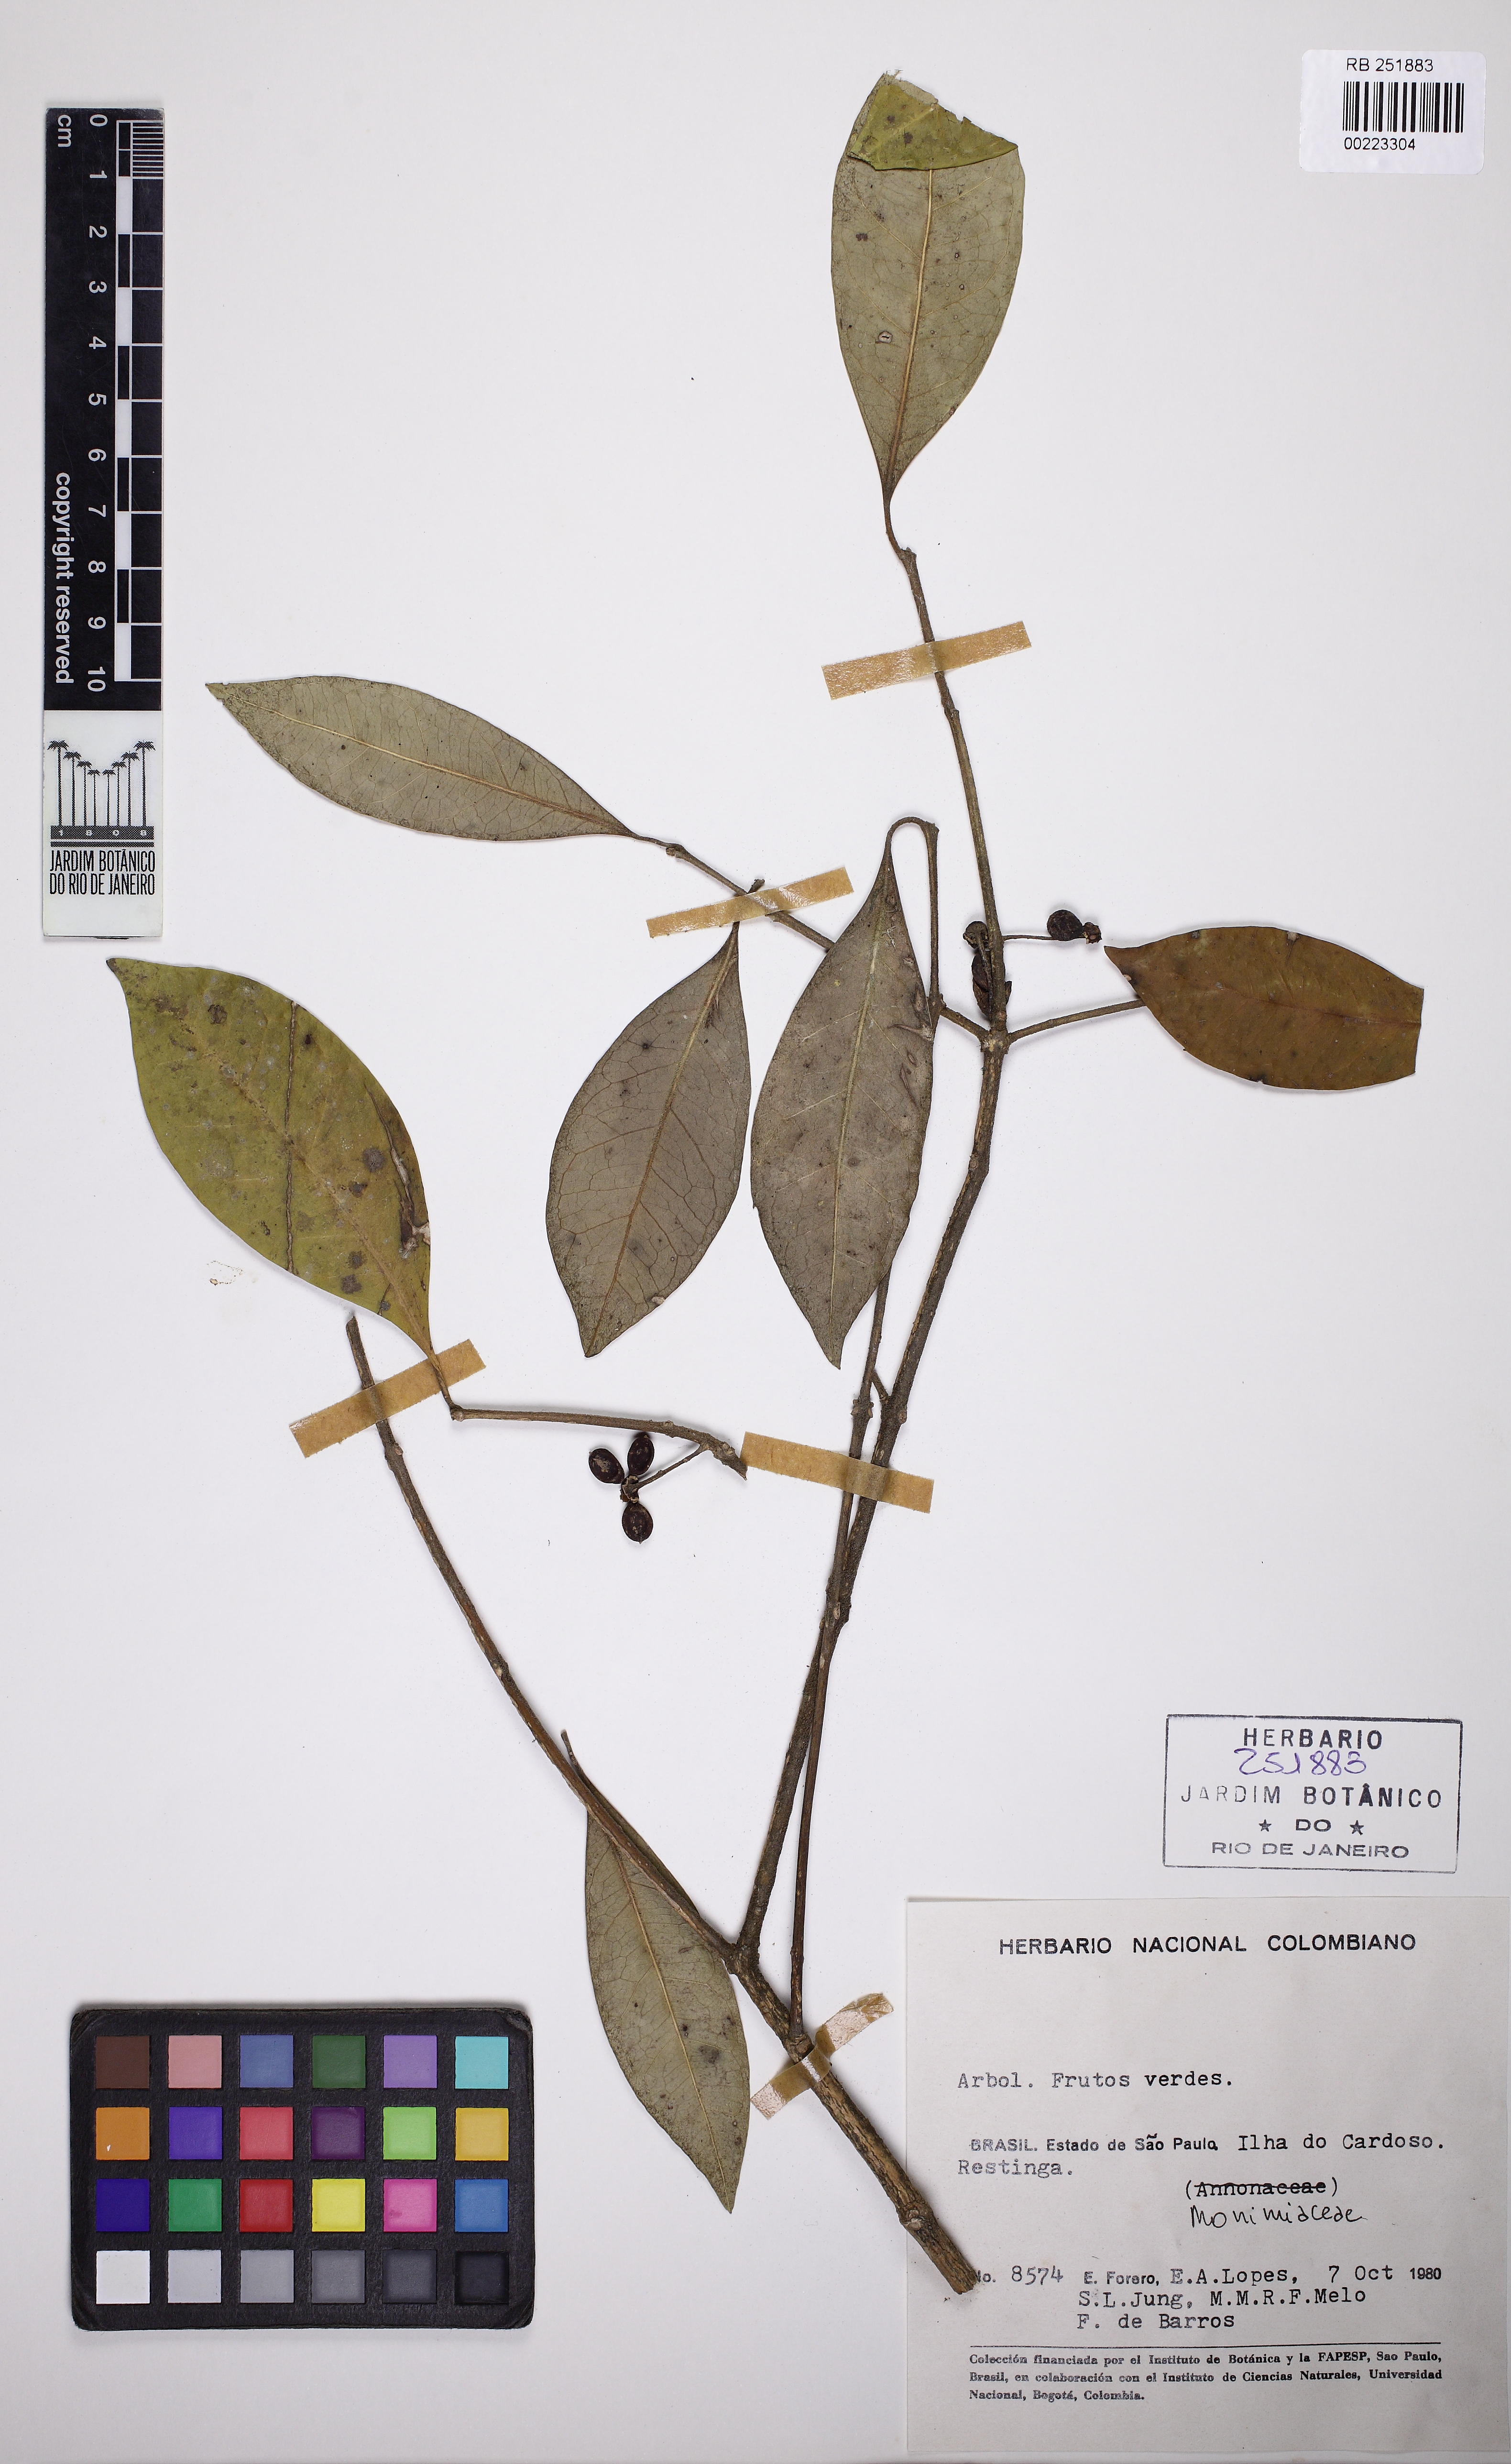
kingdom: Plantae
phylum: Tracheophyta
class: Magnoliopsida
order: Laurales
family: Monimiaceae
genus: Mollinedia
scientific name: Mollinedia triflora
